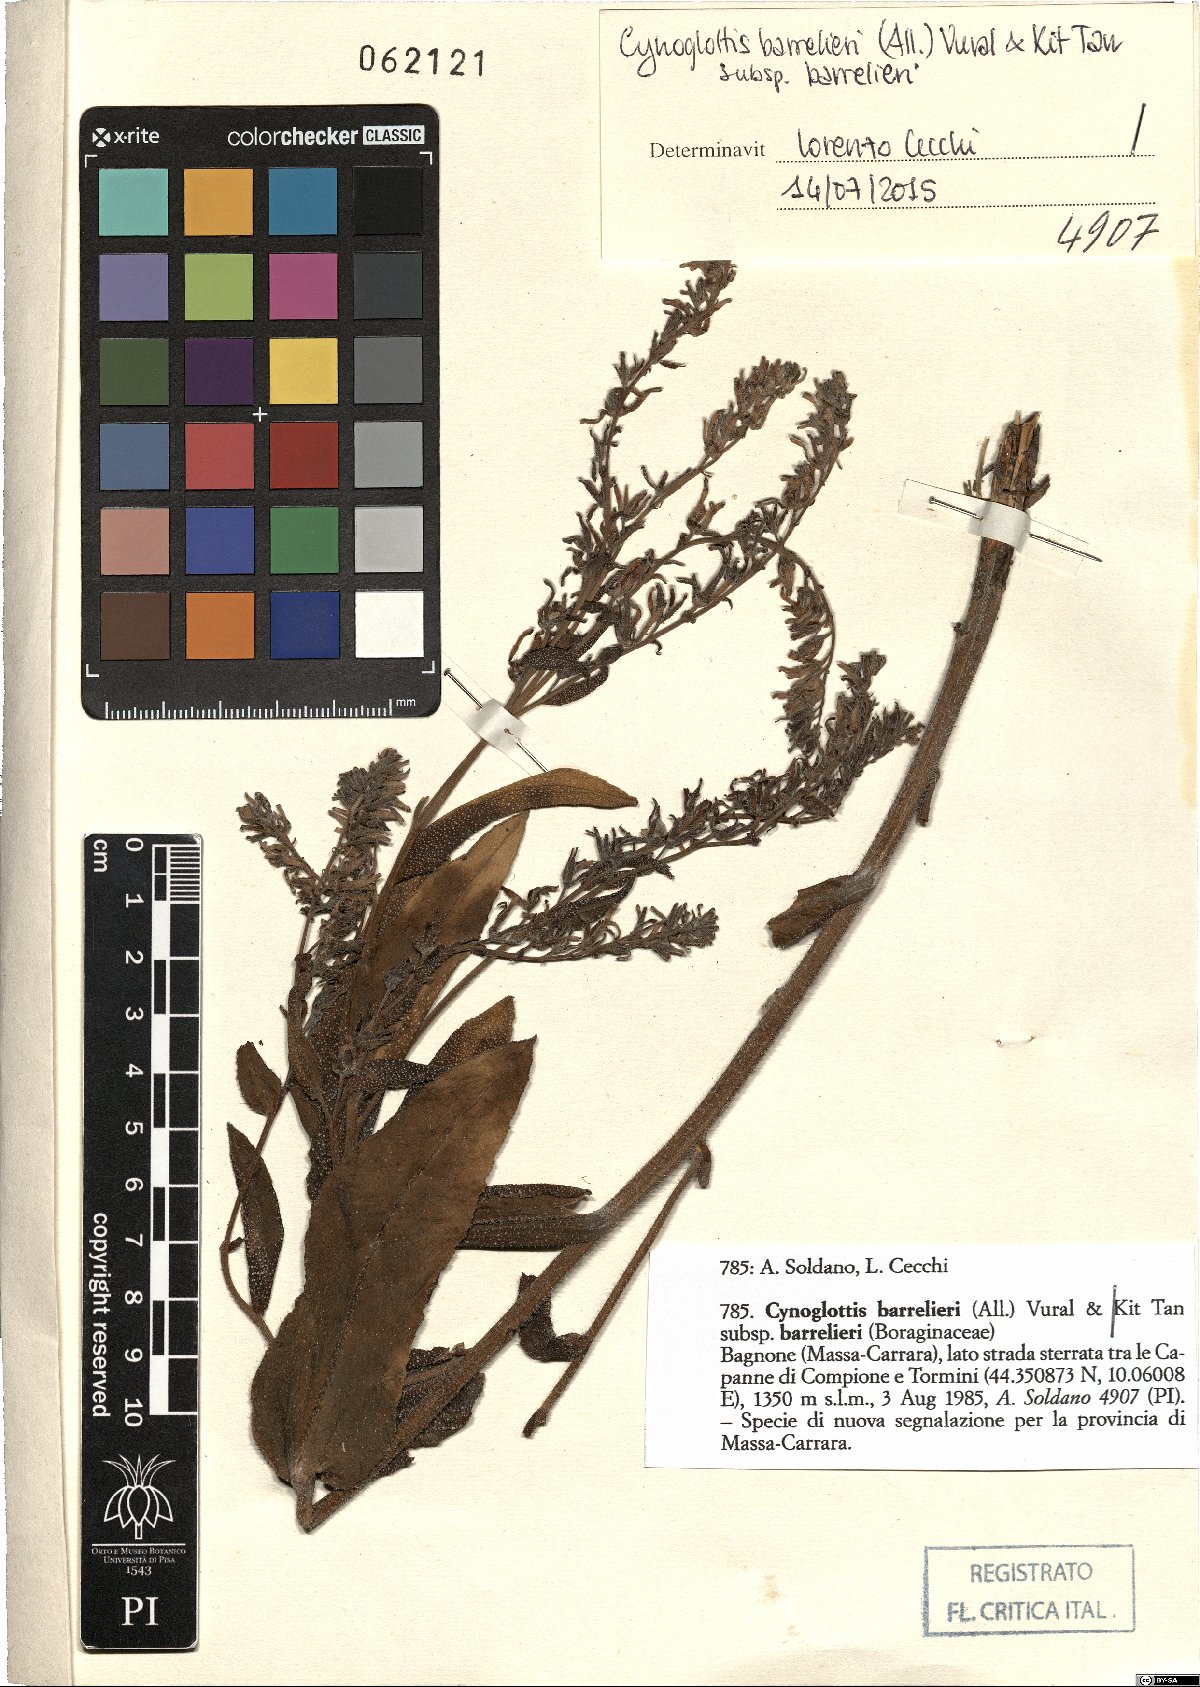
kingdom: Plantae
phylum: Tracheophyta
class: Magnoliopsida
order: Boraginales
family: Boraginaceae
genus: Cynoglottis
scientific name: Cynoglottis barrelieri
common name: False alkanet
